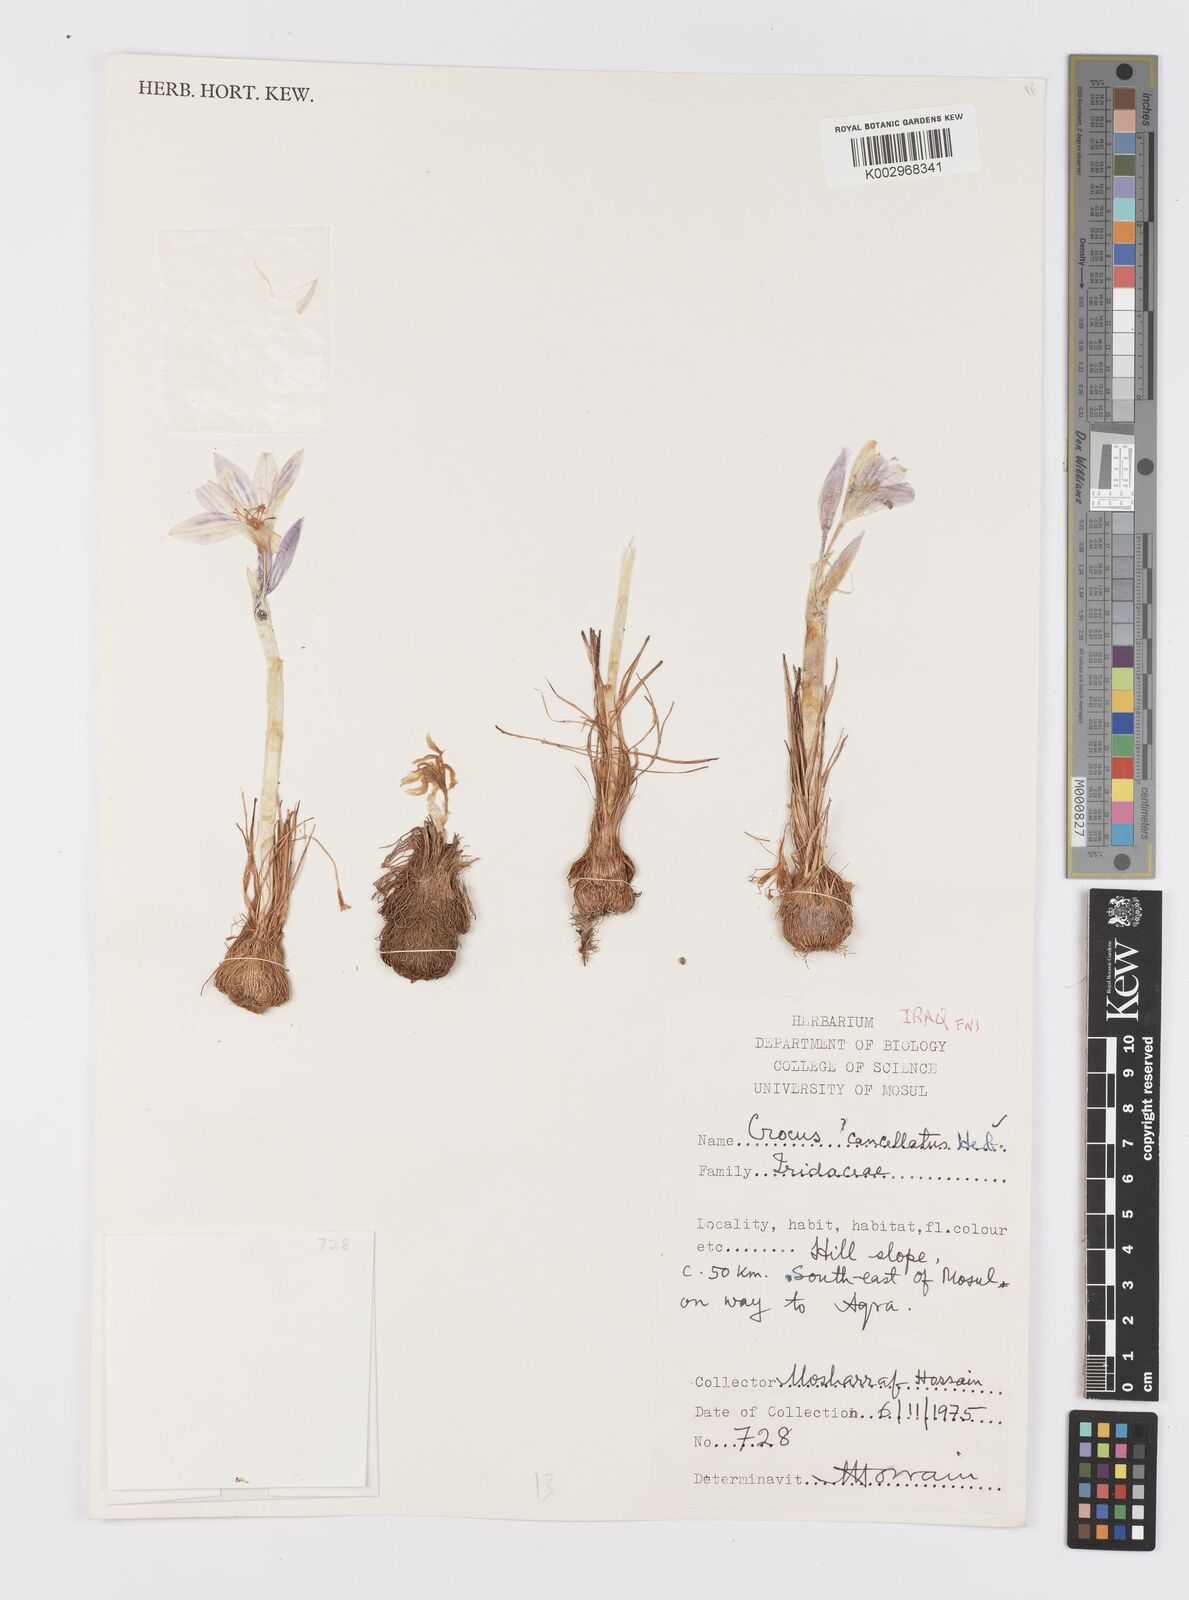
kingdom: Plantae
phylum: Tracheophyta
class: Liliopsida
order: Asparagales
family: Iridaceae
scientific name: Iridaceae
